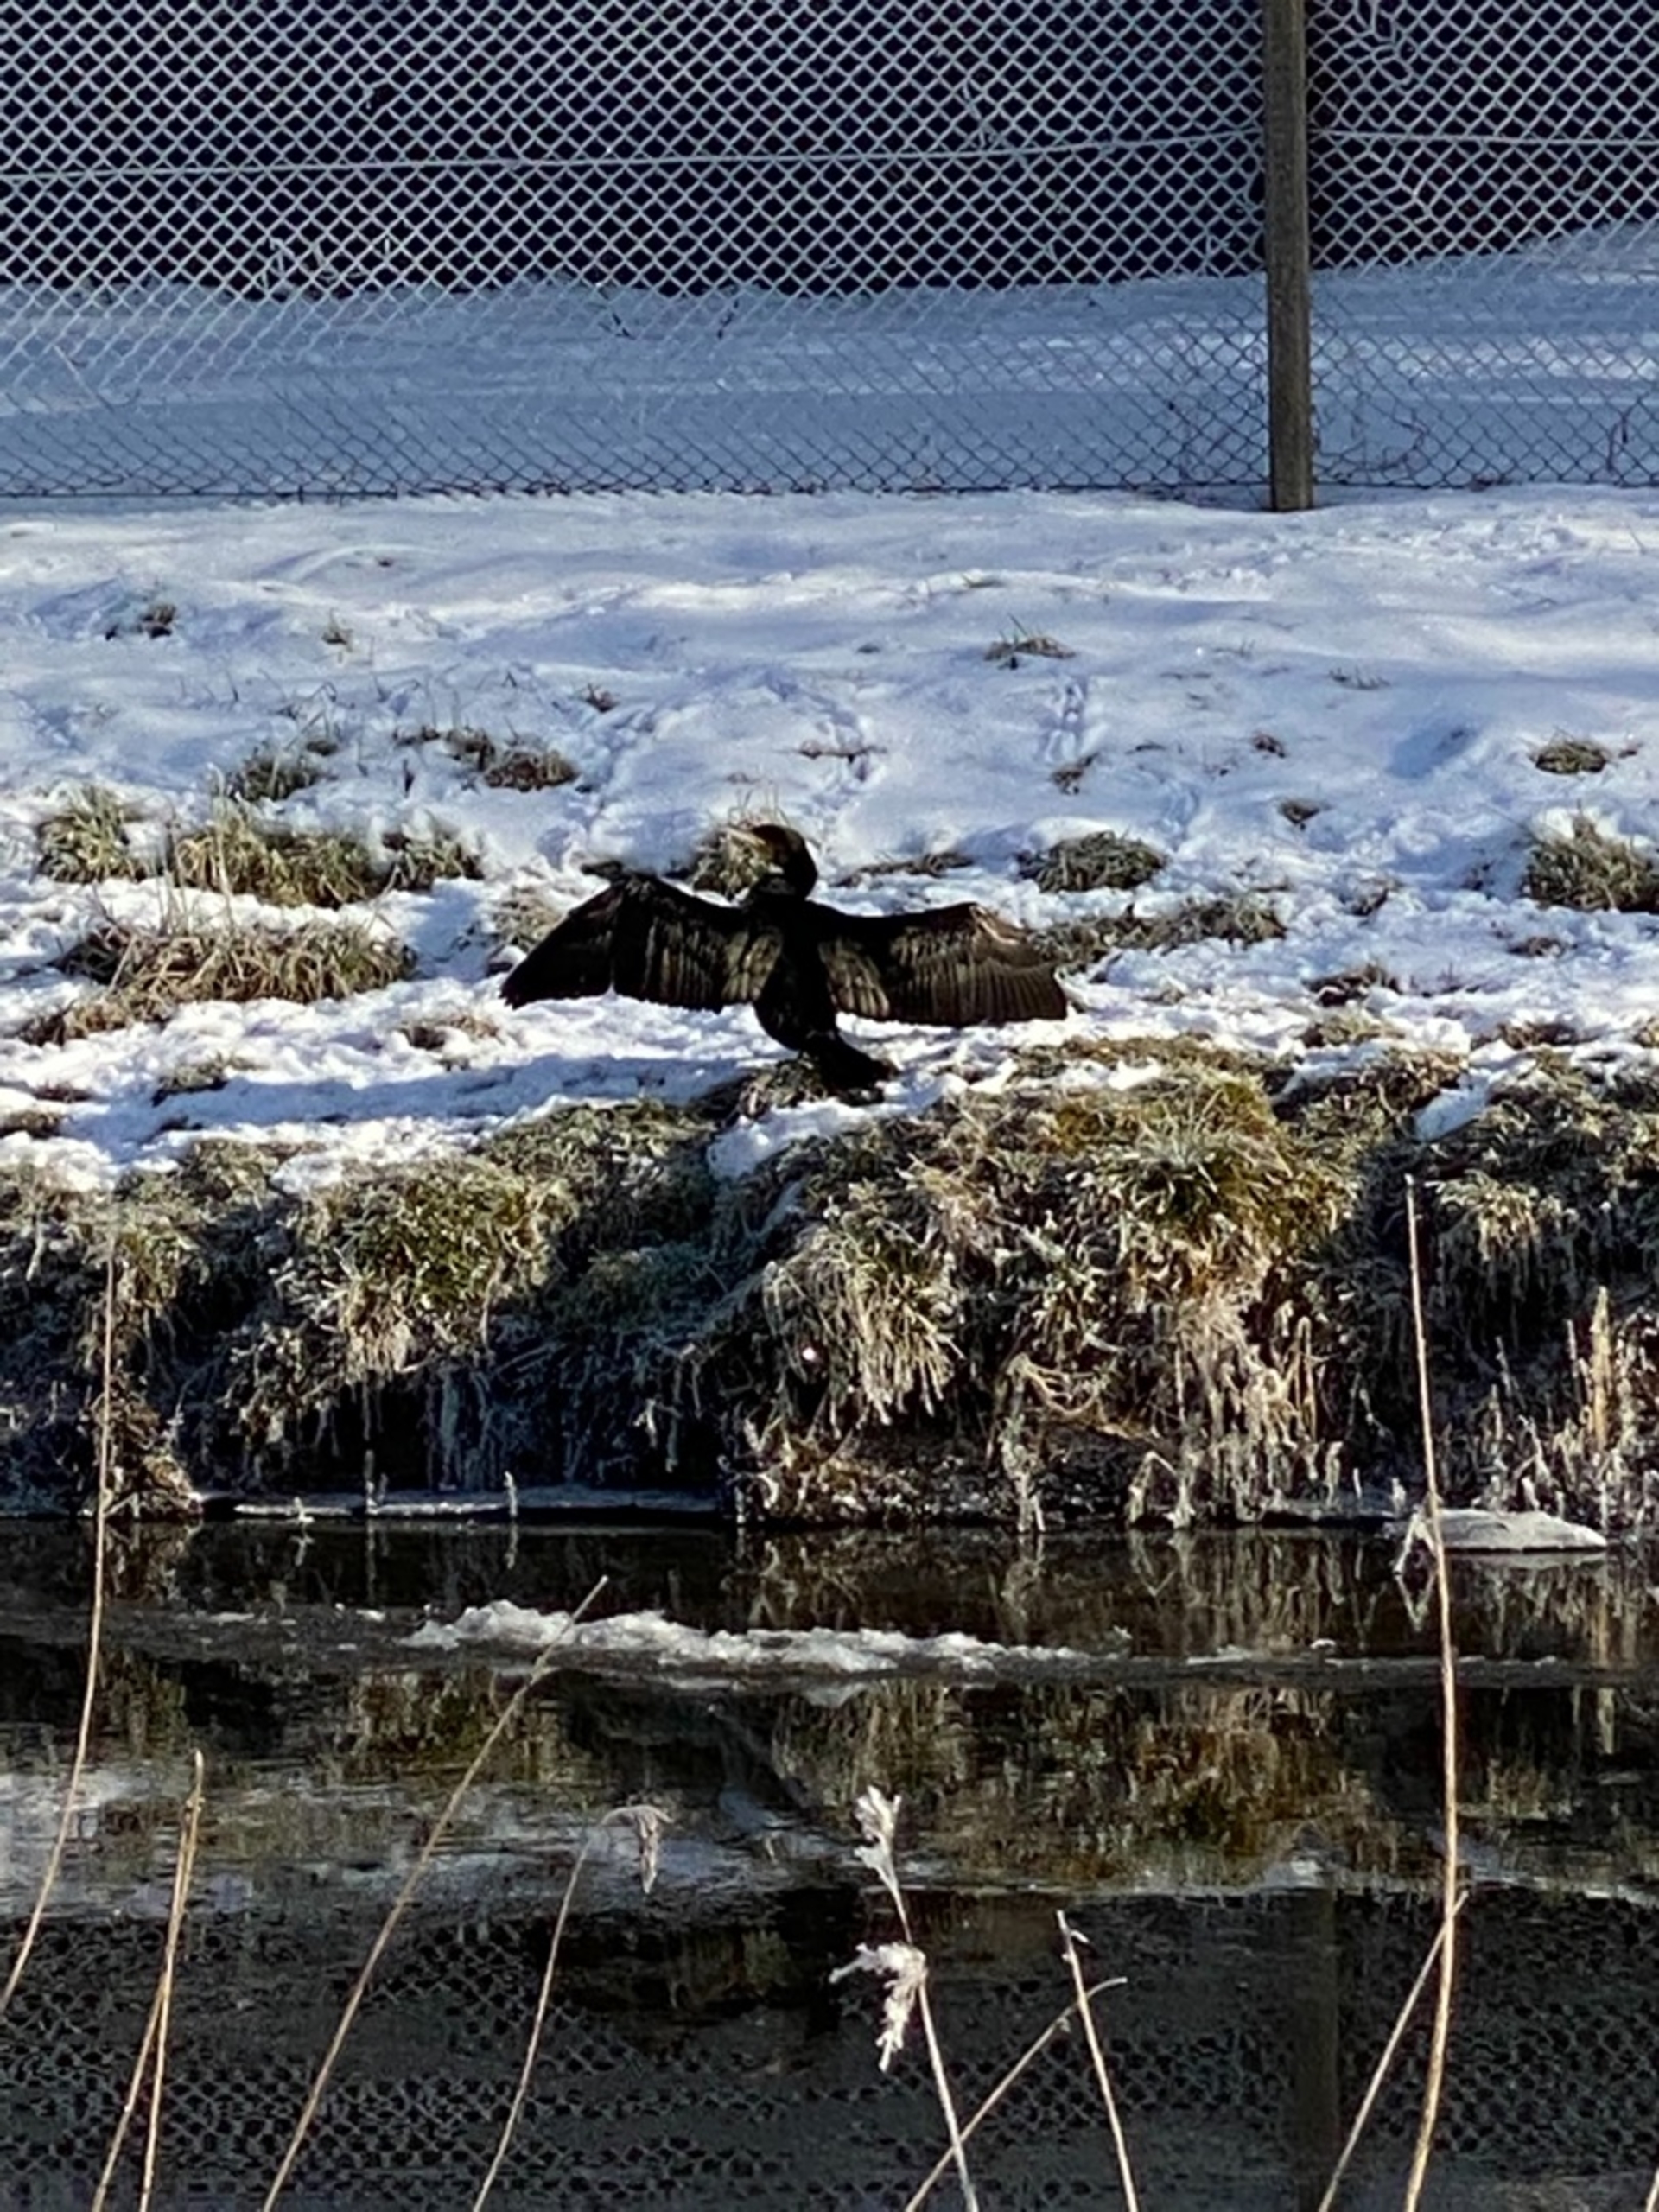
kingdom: Animalia
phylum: Chordata
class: Aves
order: Suliformes
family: Phalacrocoracidae
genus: Phalacrocorax
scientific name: Phalacrocorax carbo
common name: Skarv
